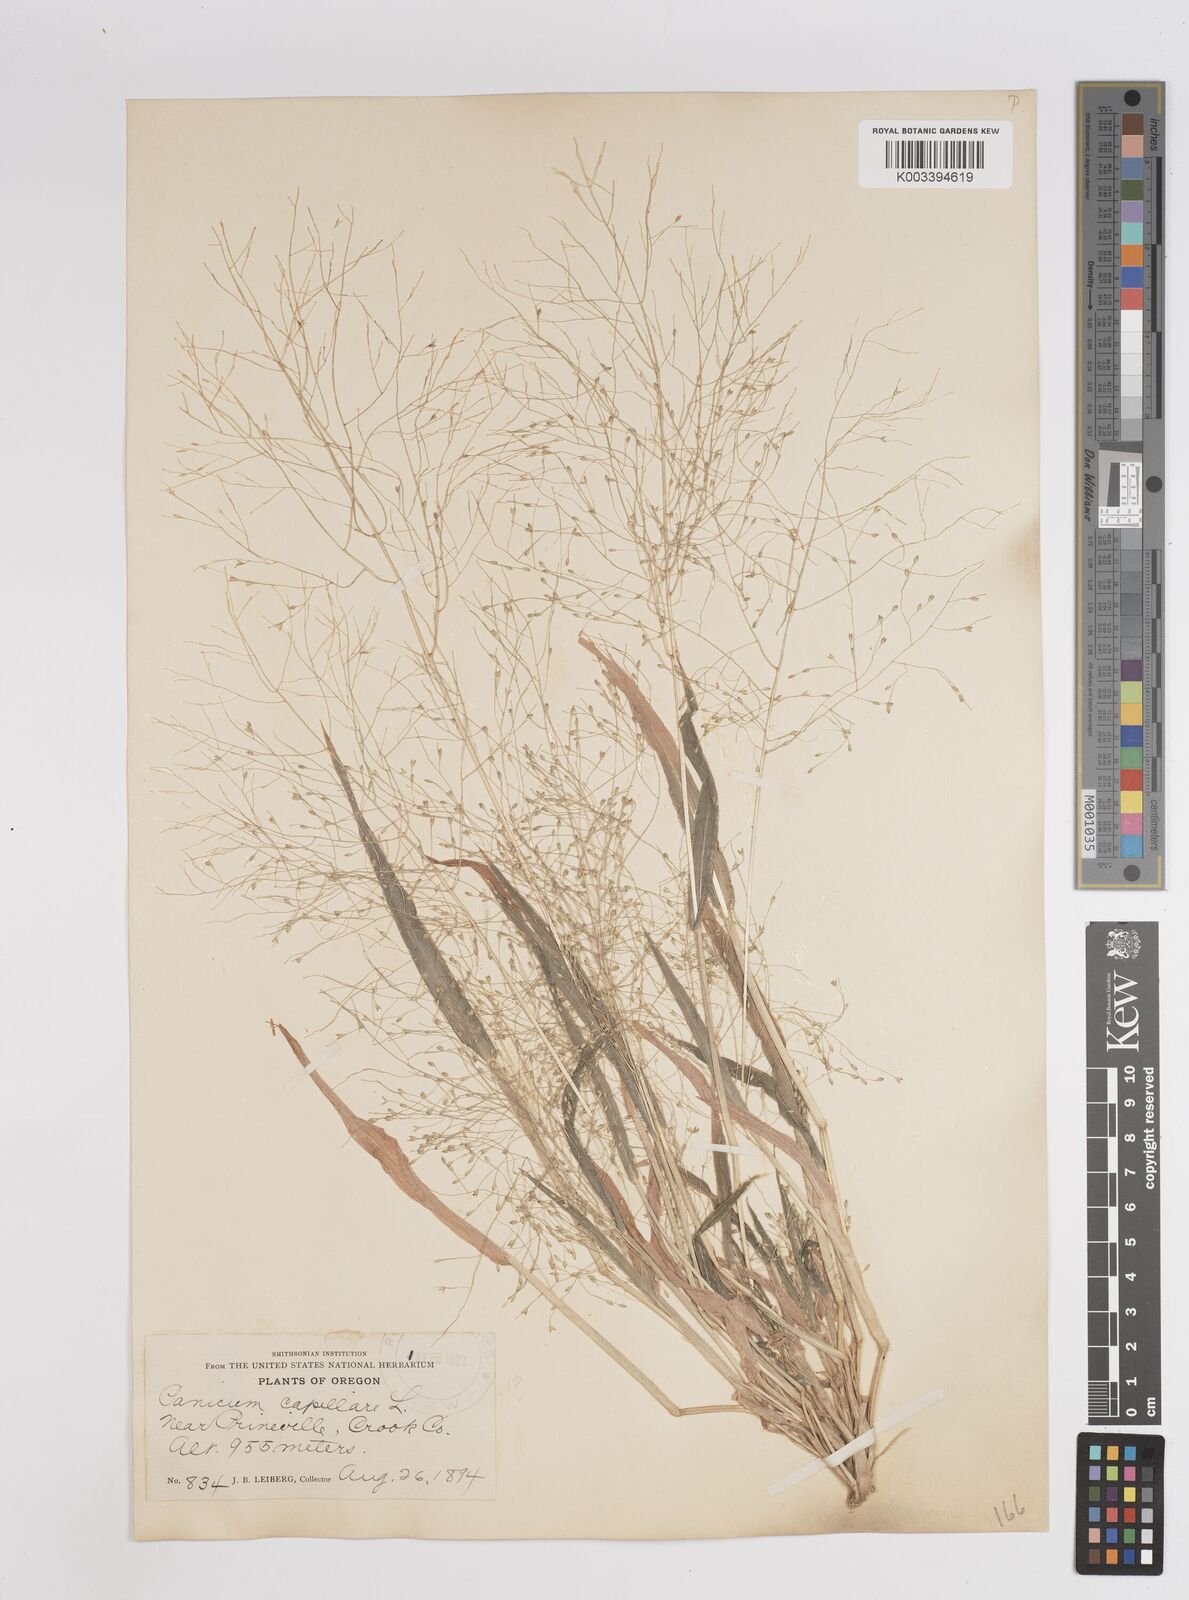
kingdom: Plantae
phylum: Tracheophyta
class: Liliopsida
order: Poales
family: Poaceae
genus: Panicum
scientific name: Panicum capillare
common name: Witch-grass
